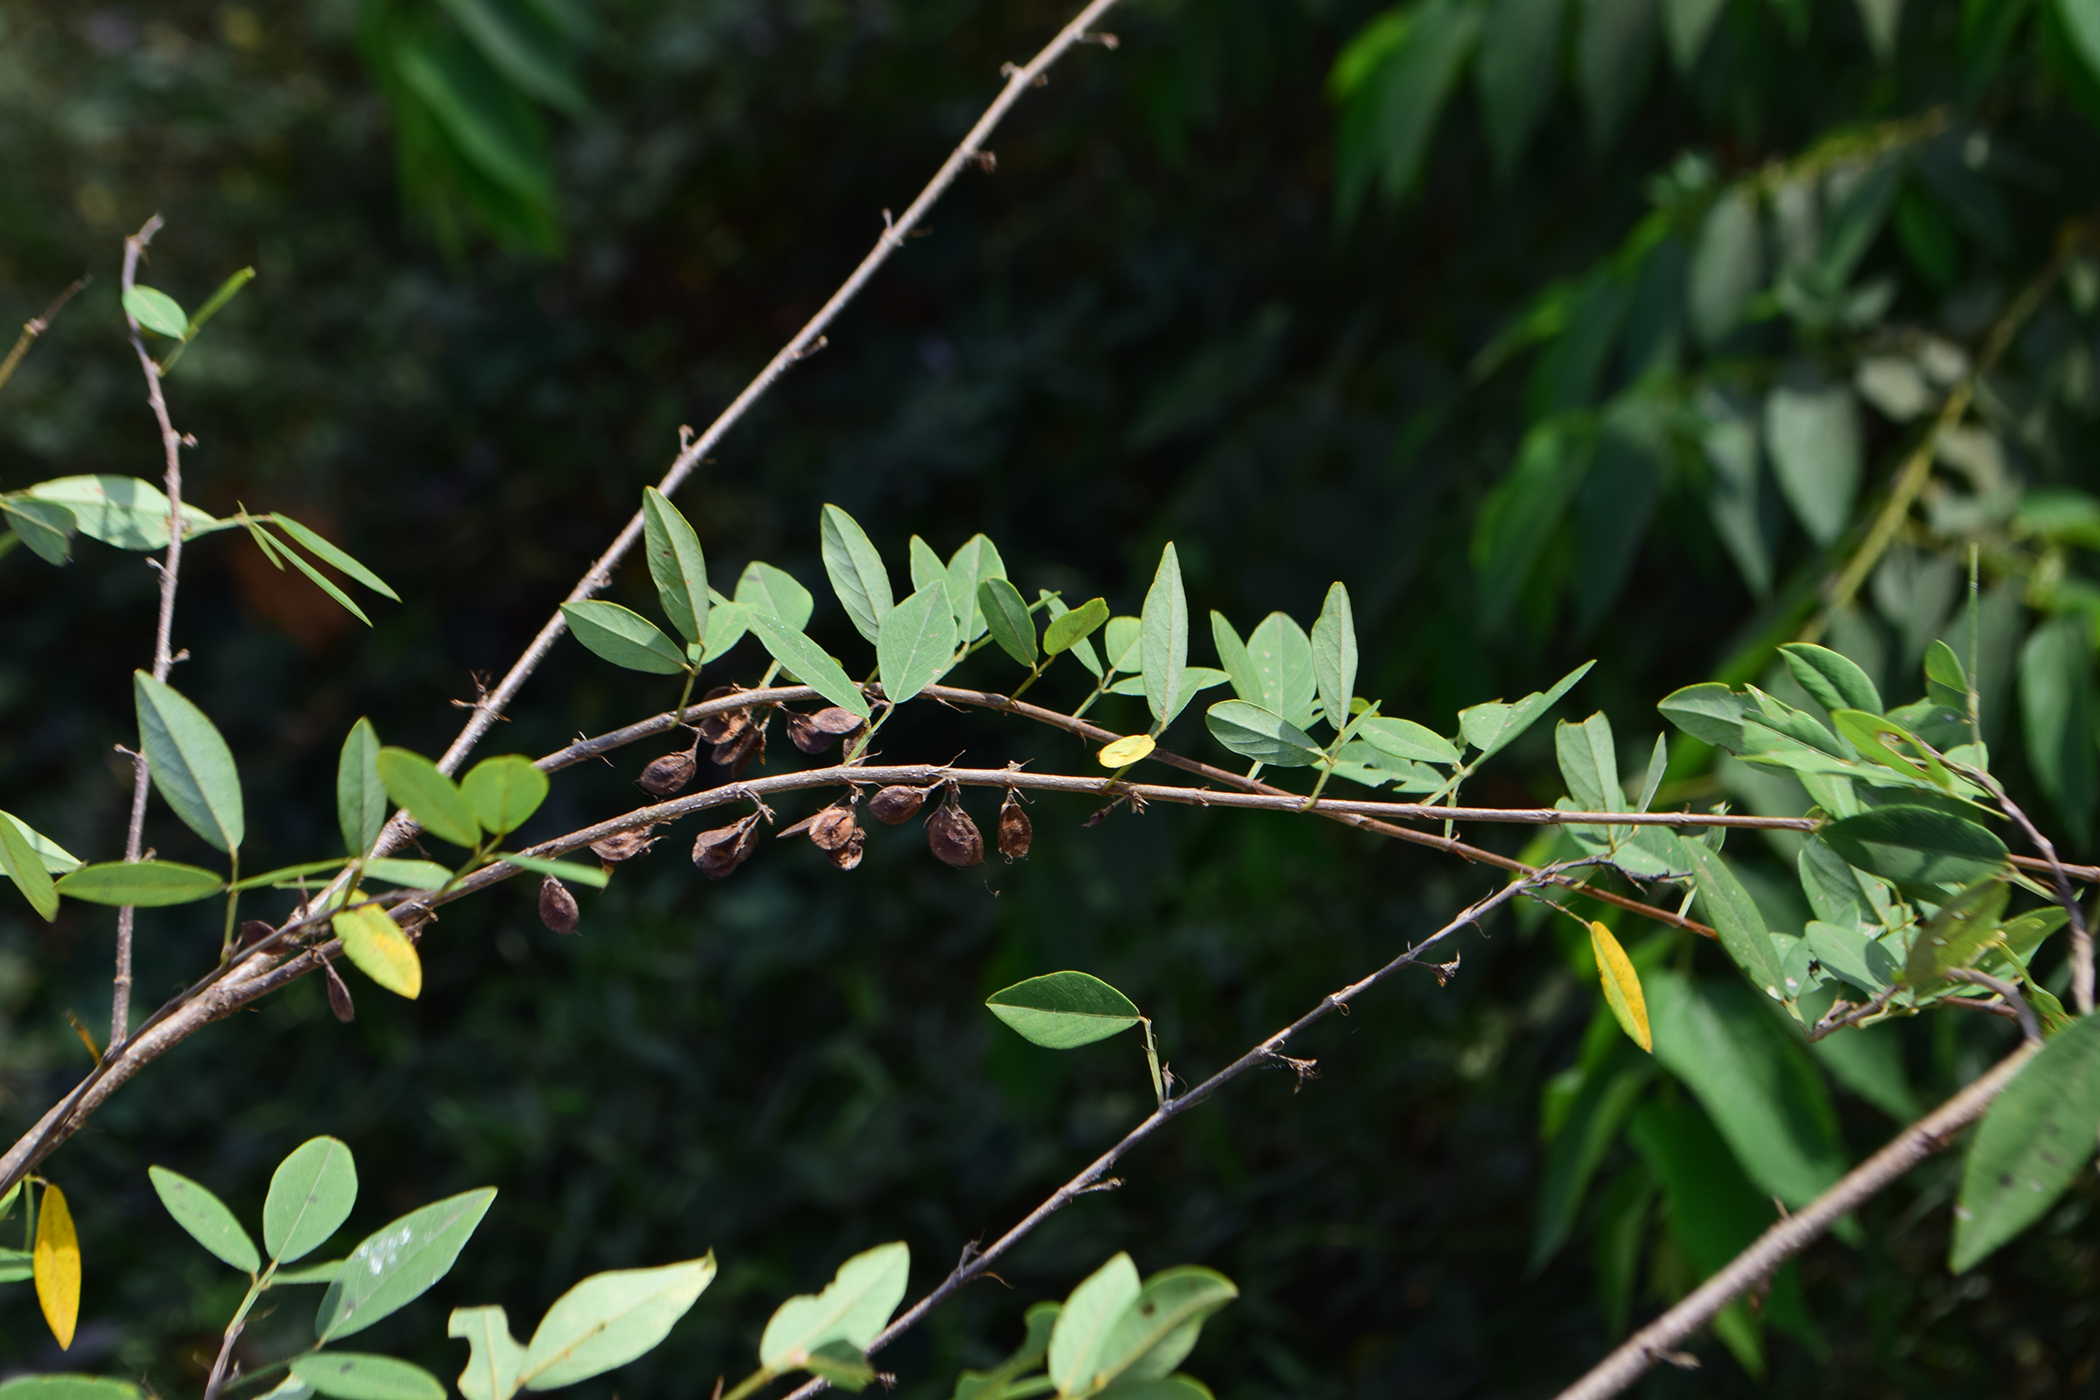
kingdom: Plantae
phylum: Tracheophyta
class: Magnoliopsida
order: Fabales
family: Fabaceae
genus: Dendrolobium
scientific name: Dendrolobium lanceolatum
